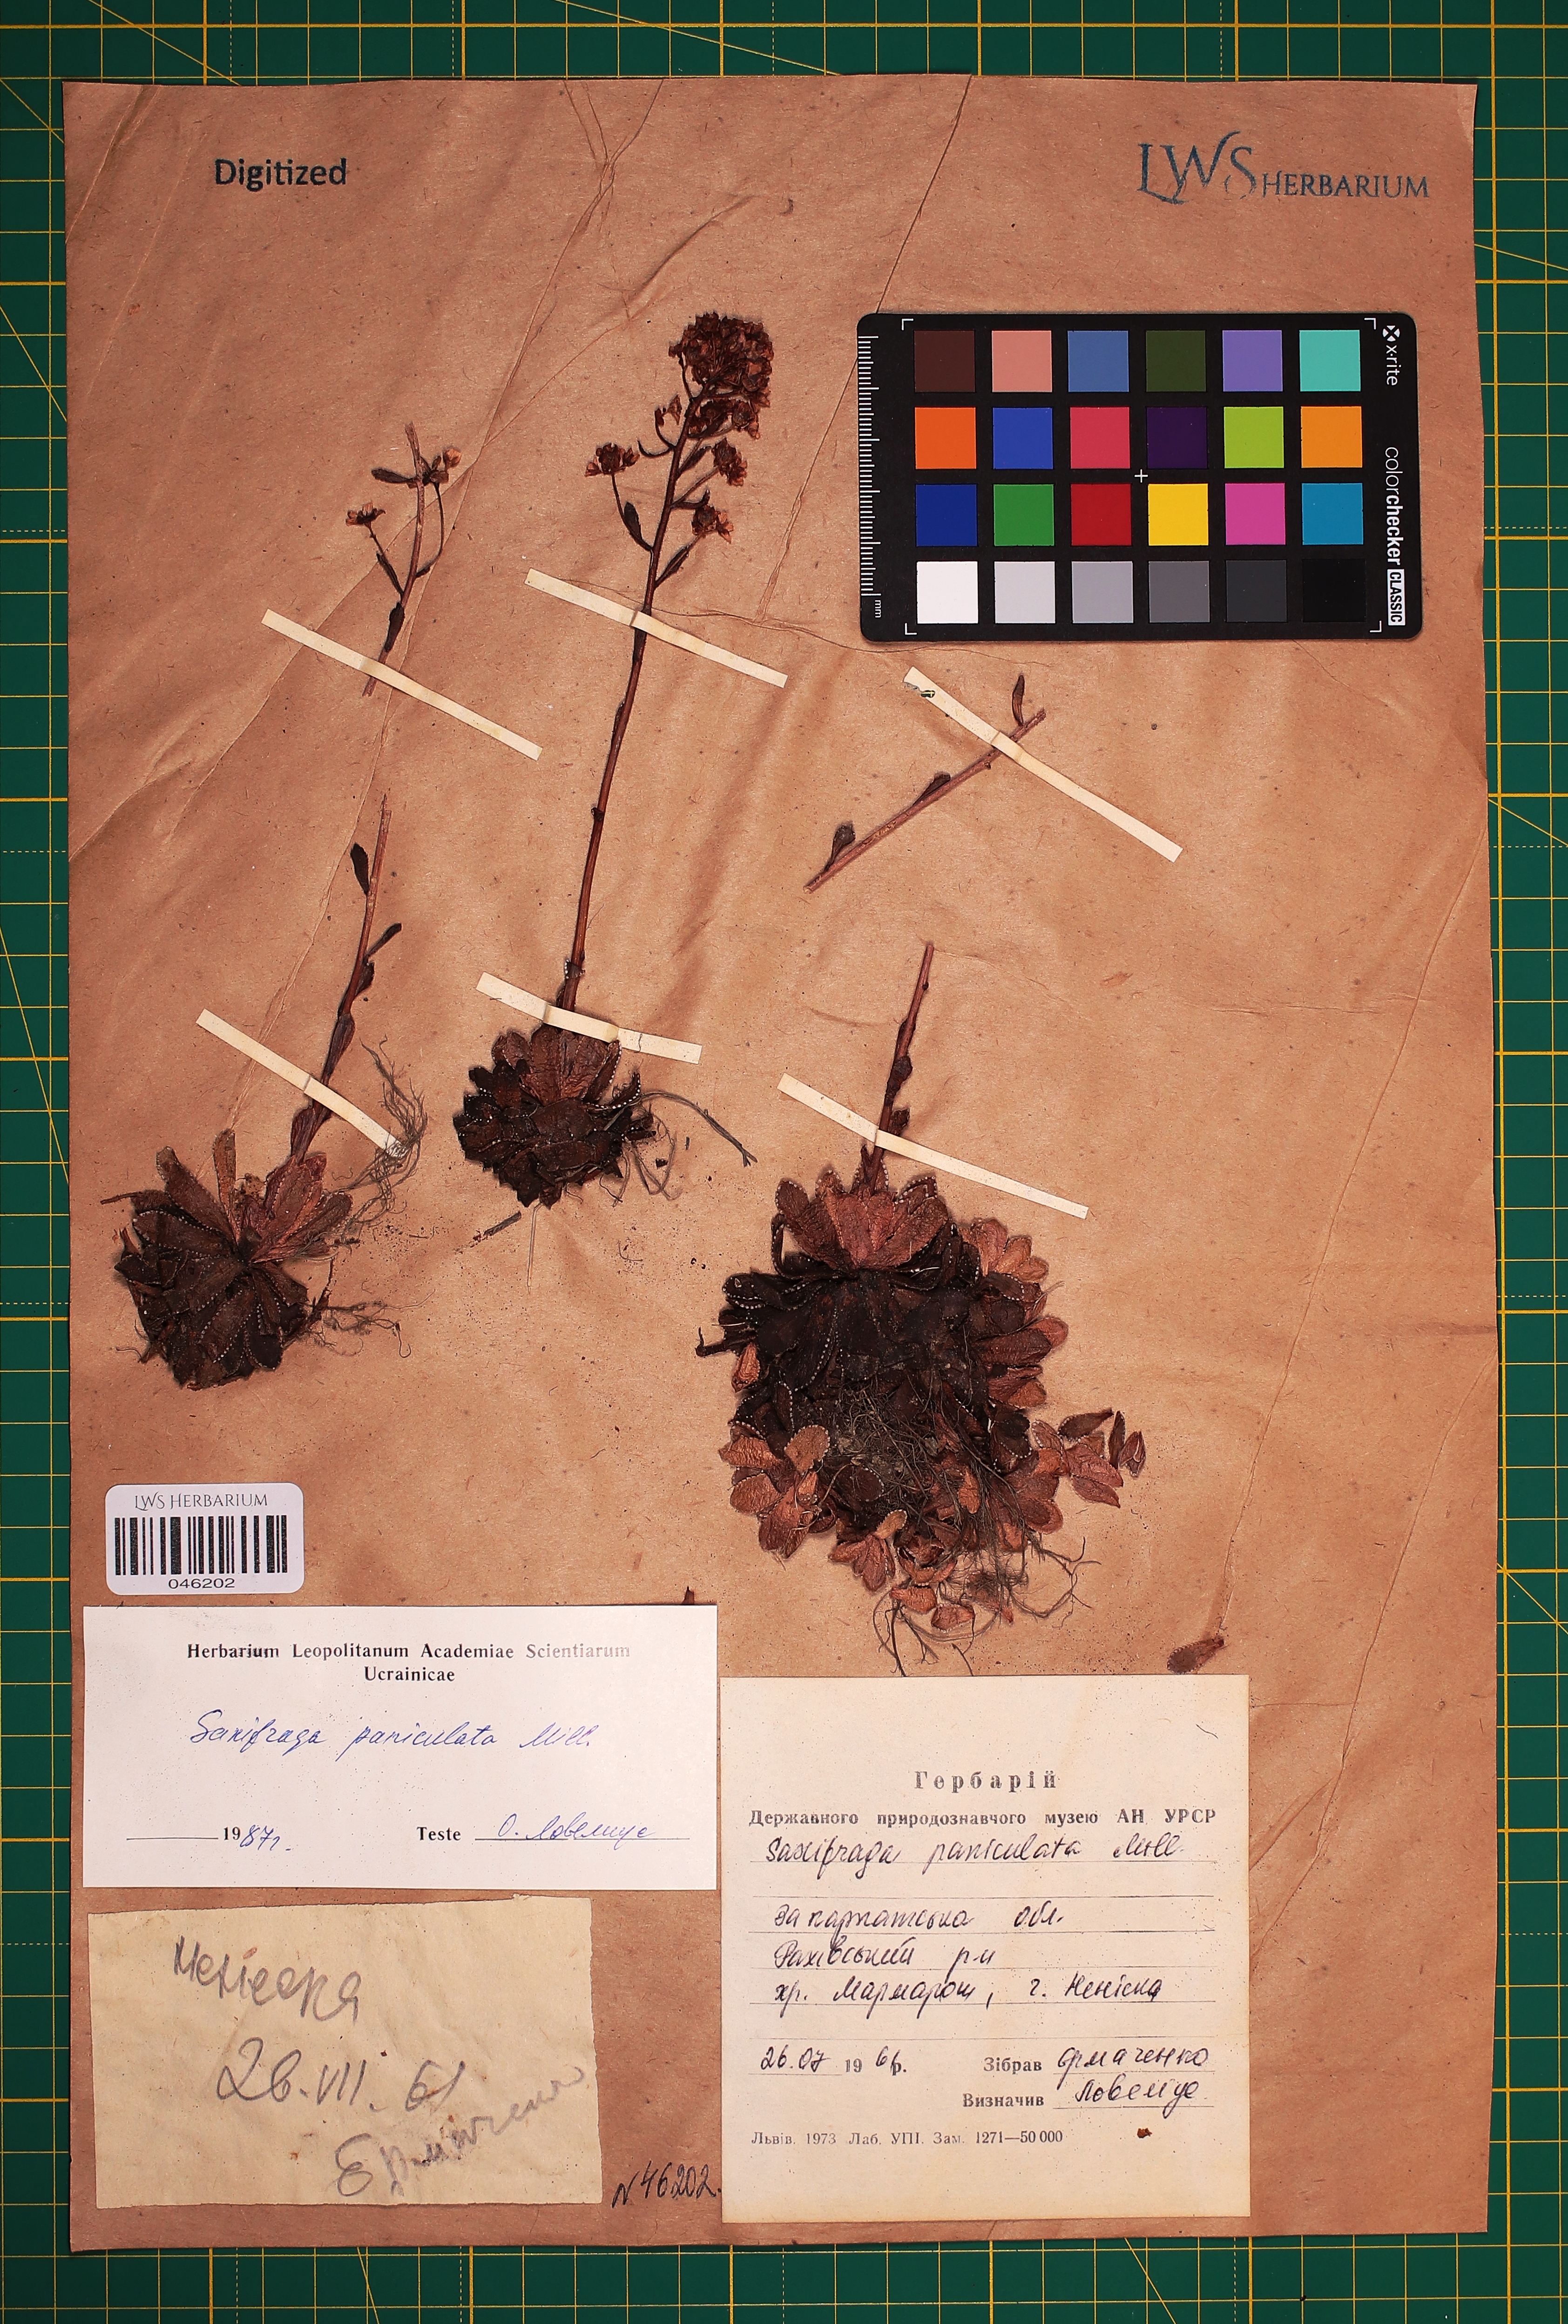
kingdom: Plantae
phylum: Tracheophyta
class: Magnoliopsida
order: Saxifragales
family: Saxifragaceae
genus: Saxifraga
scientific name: Saxifraga paniculata
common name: Livelong saxifrage
